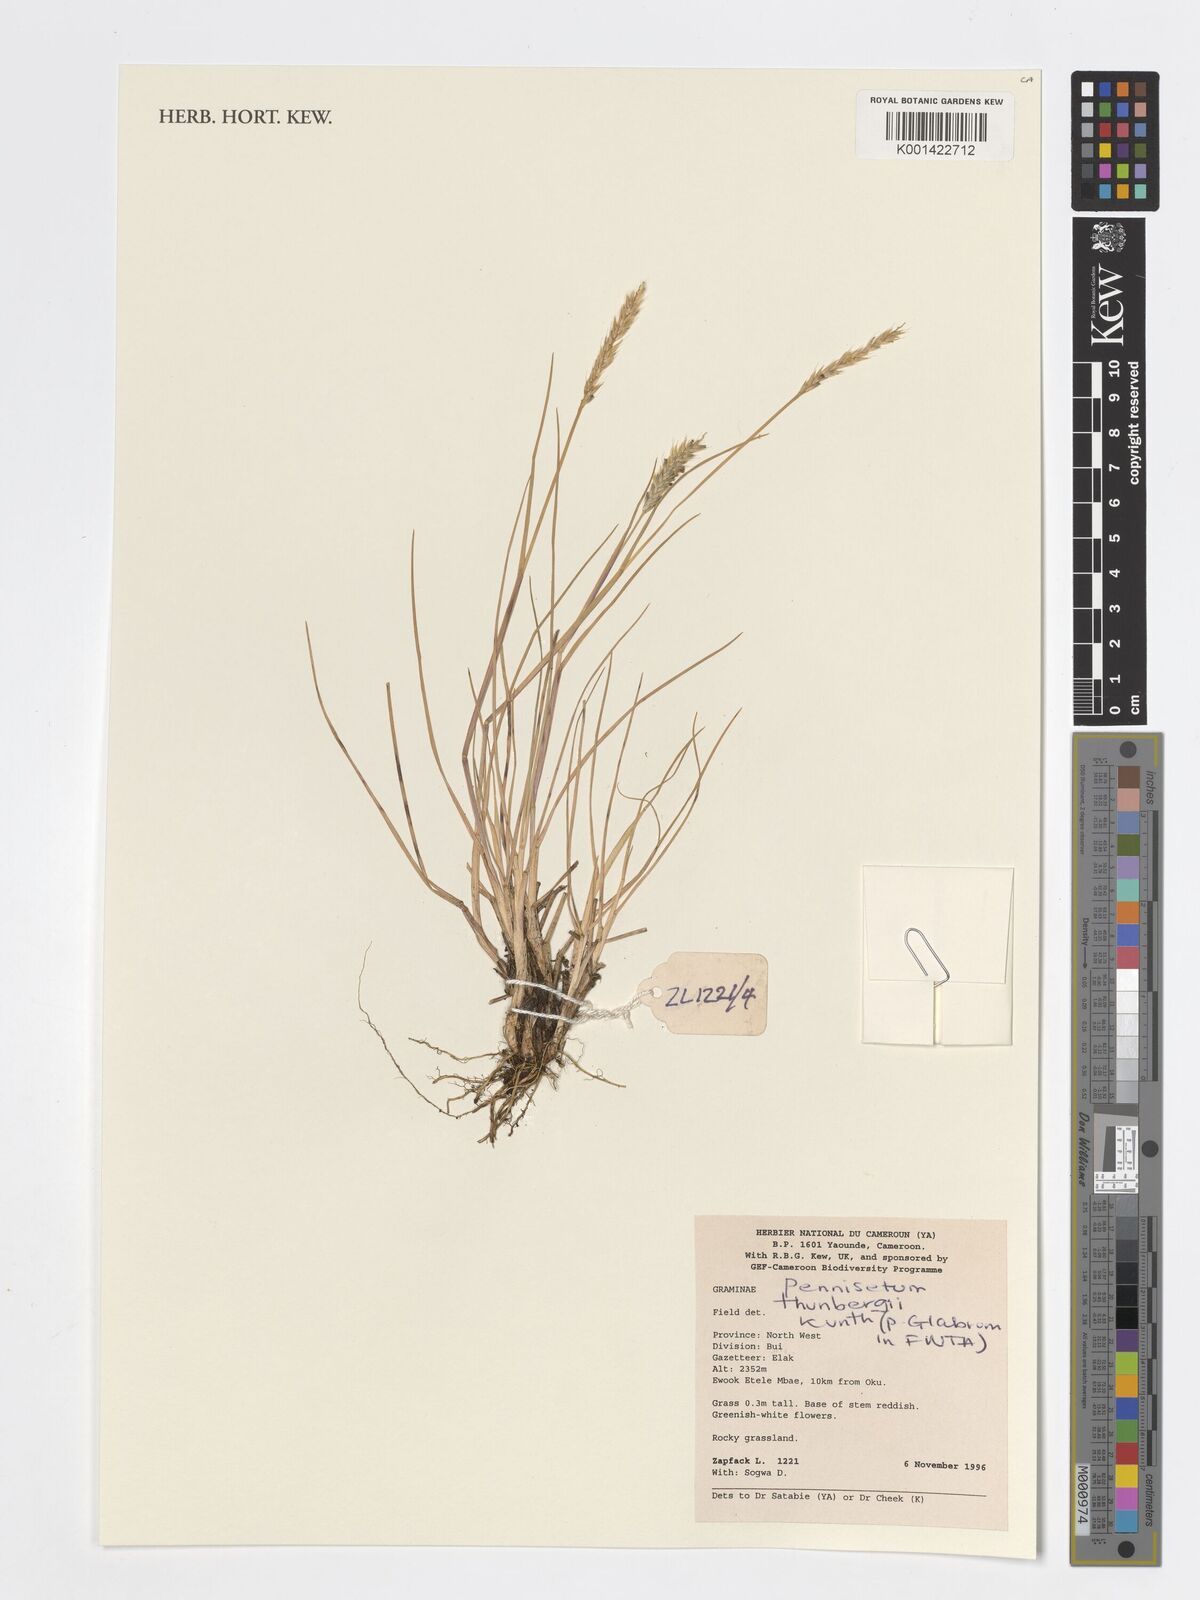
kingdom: Plantae
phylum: Tracheophyta
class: Liliopsida
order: Poales
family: Poaceae
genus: Cenchrus
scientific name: Cenchrus geniculatus
